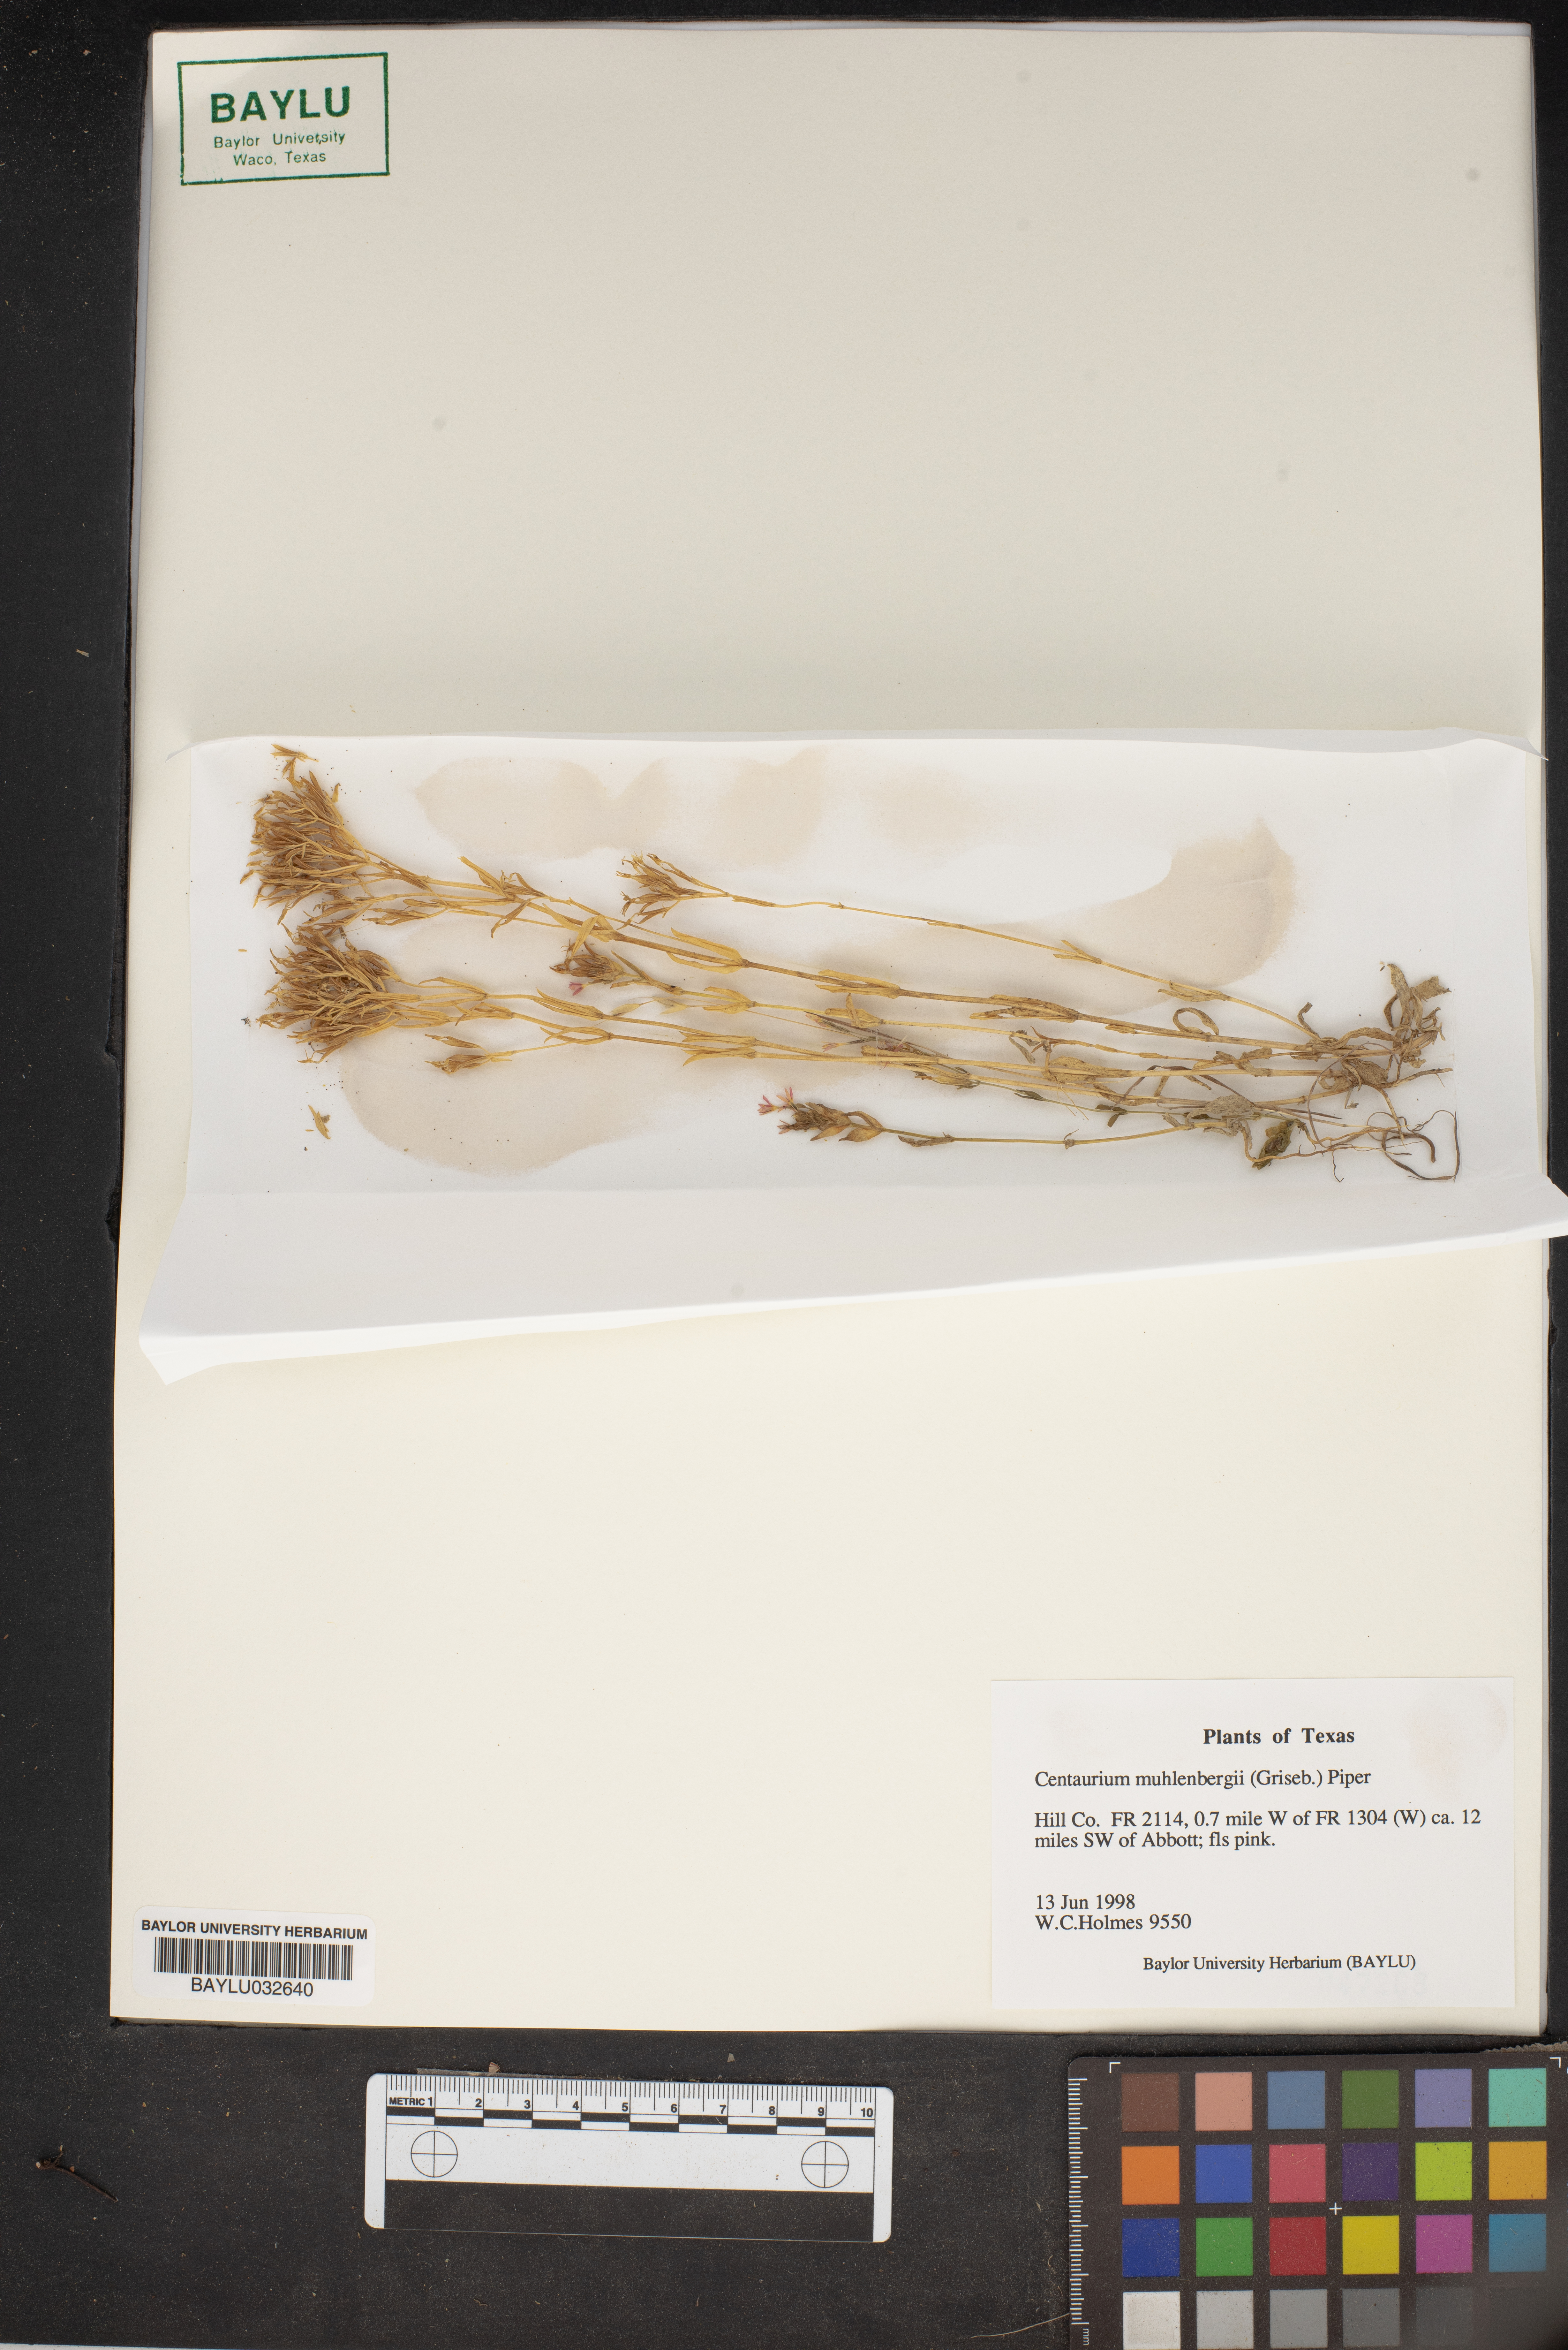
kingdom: Plantae
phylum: Tracheophyta
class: Magnoliopsida
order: Gentianales
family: Gentianaceae
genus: Zeltnera
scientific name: Zeltnera muhlenbergii
